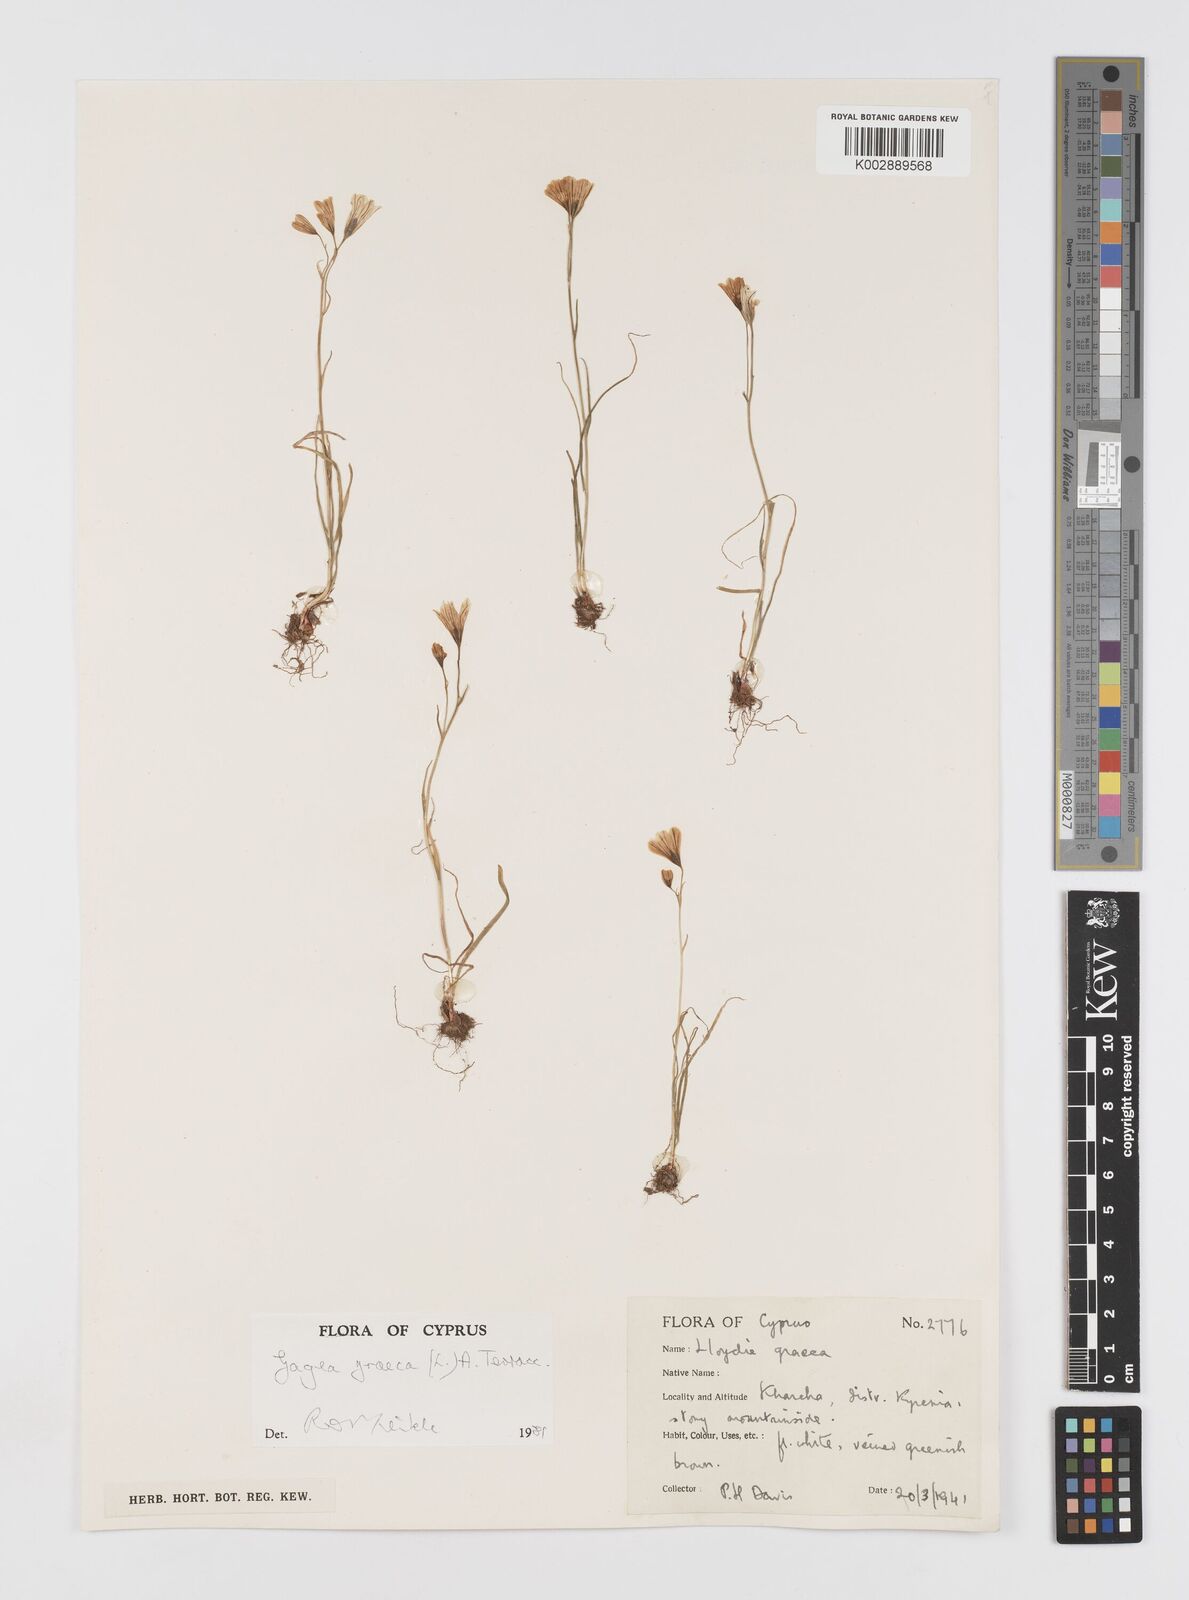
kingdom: Plantae
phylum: Tracheophyta
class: Liliopsida
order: Liliales
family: Liliaceae
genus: Gagea
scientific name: Gagea graeca
